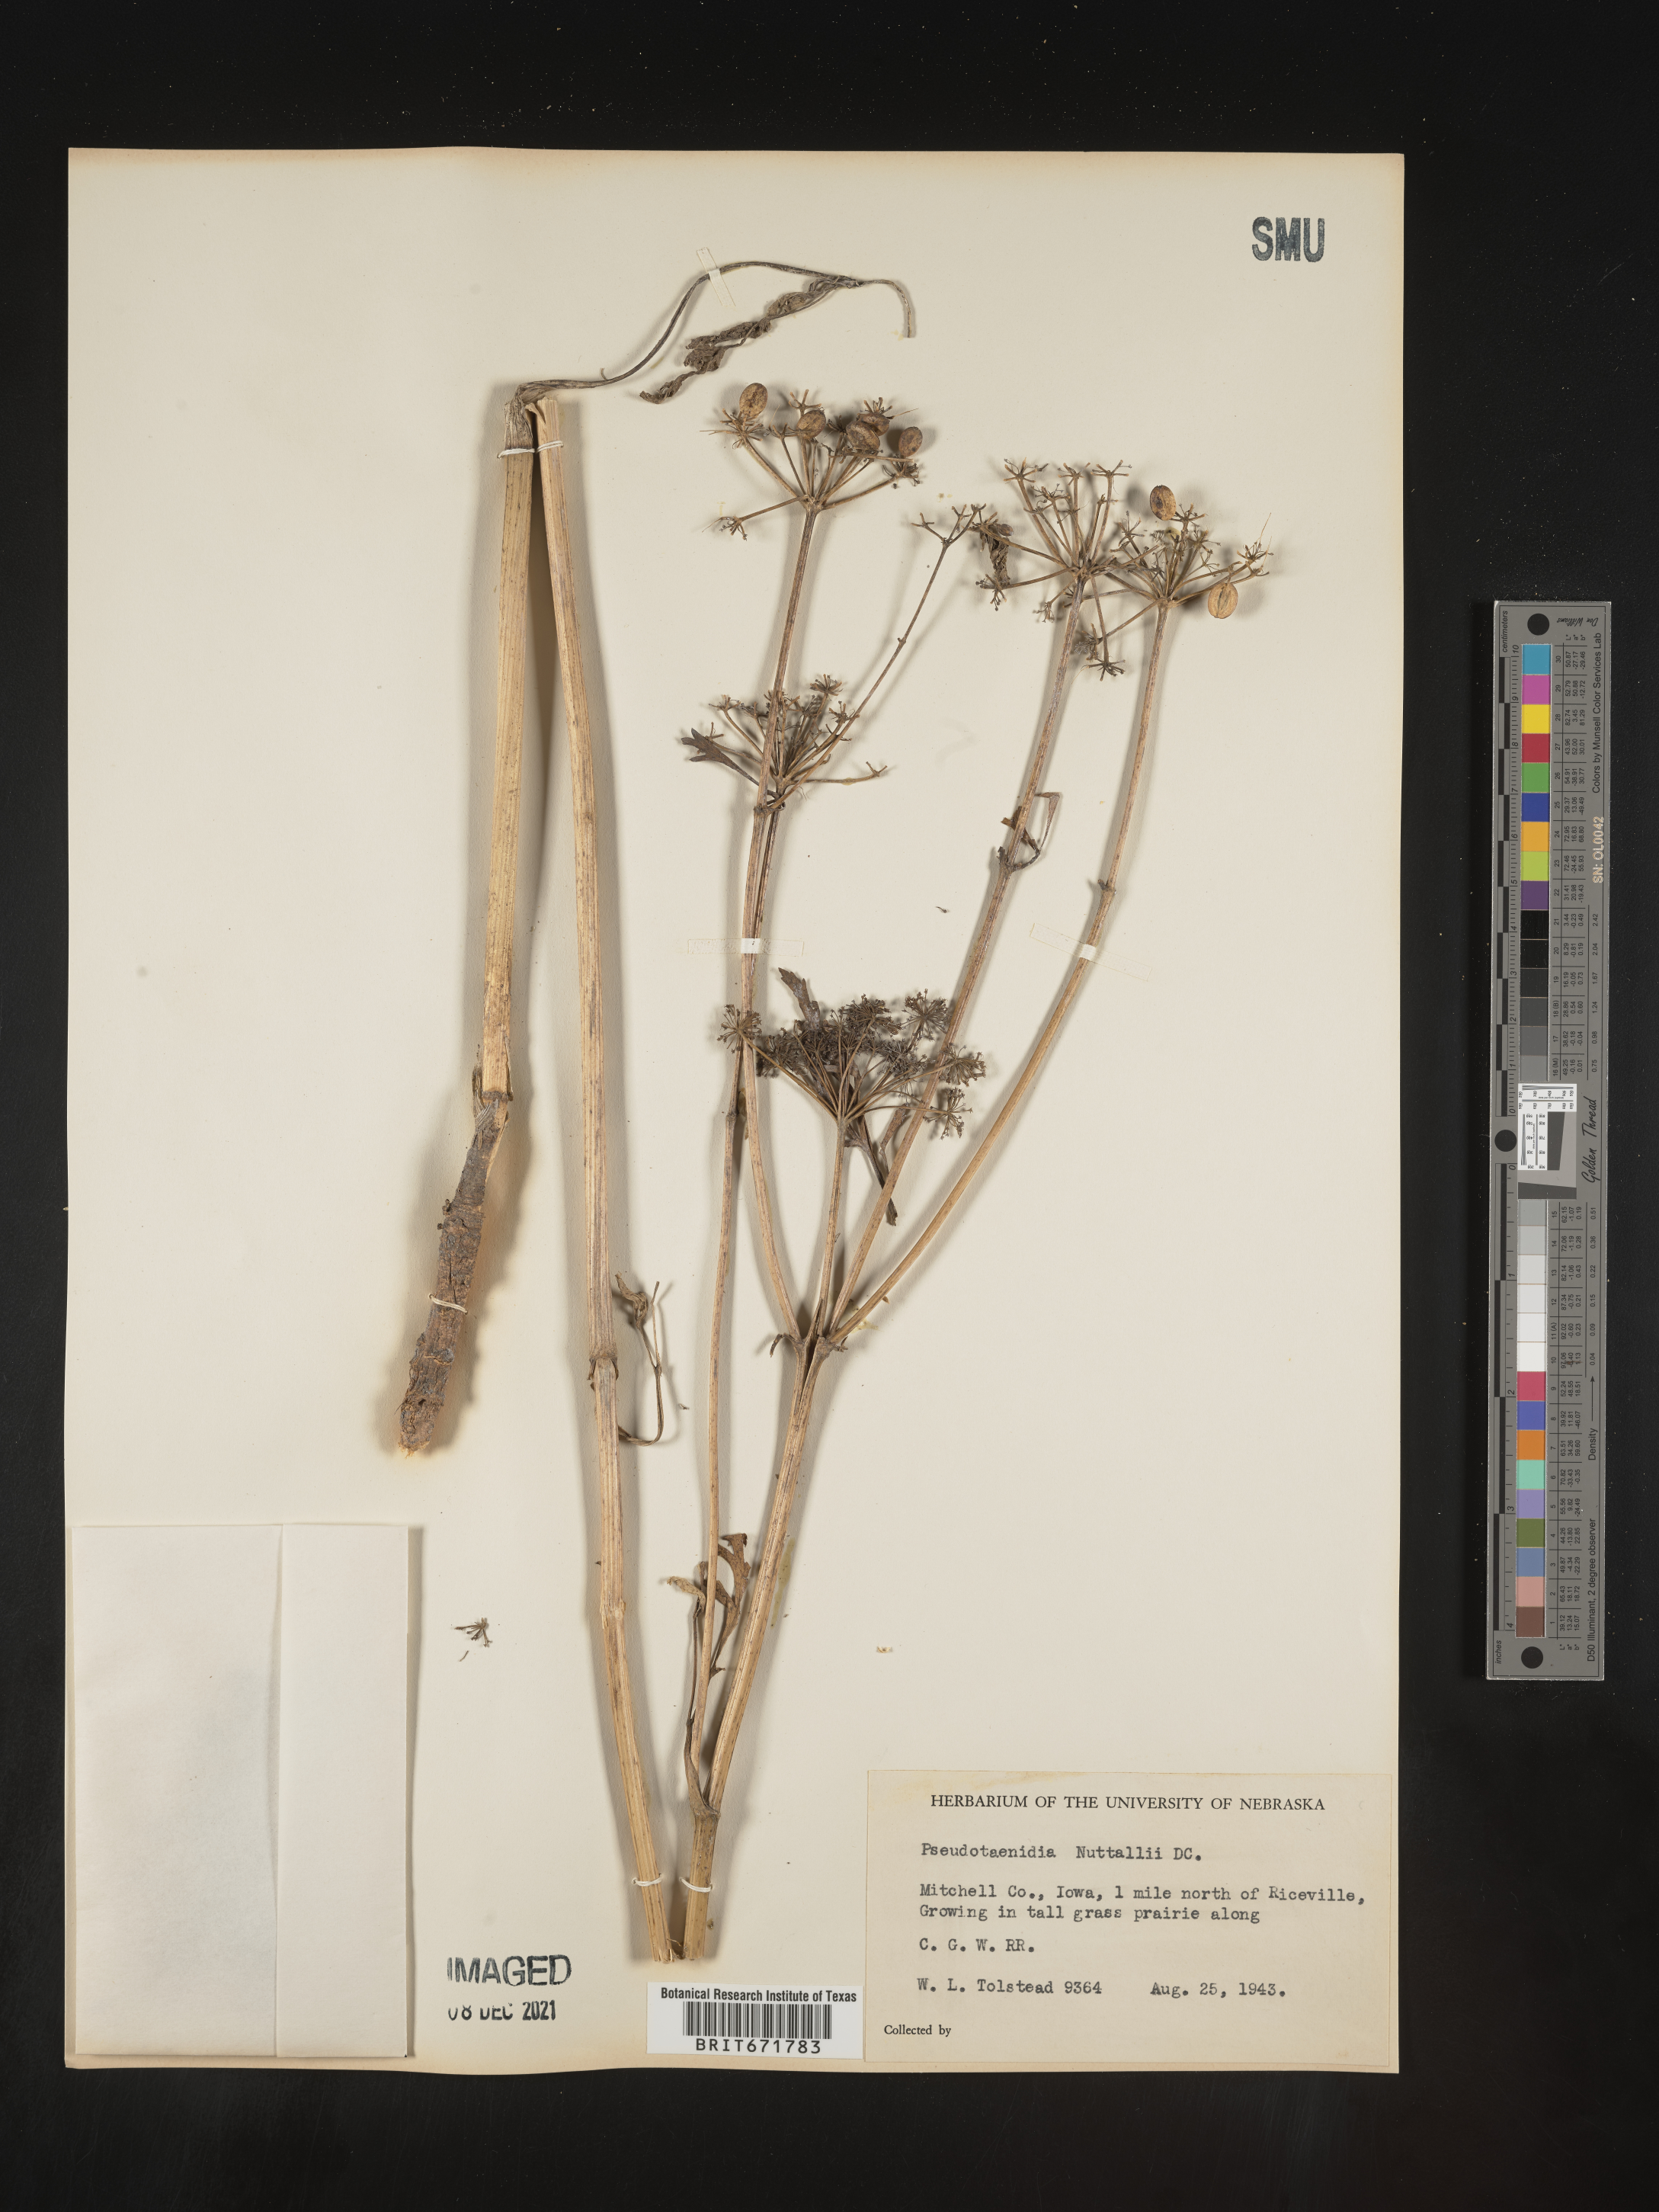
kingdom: Plantae
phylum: Tracheophyta
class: Magnoliopsida
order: Apiales
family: Apiaceae
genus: Polytaenia
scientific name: Polytaenia nuttallii
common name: Prairie-parsley
